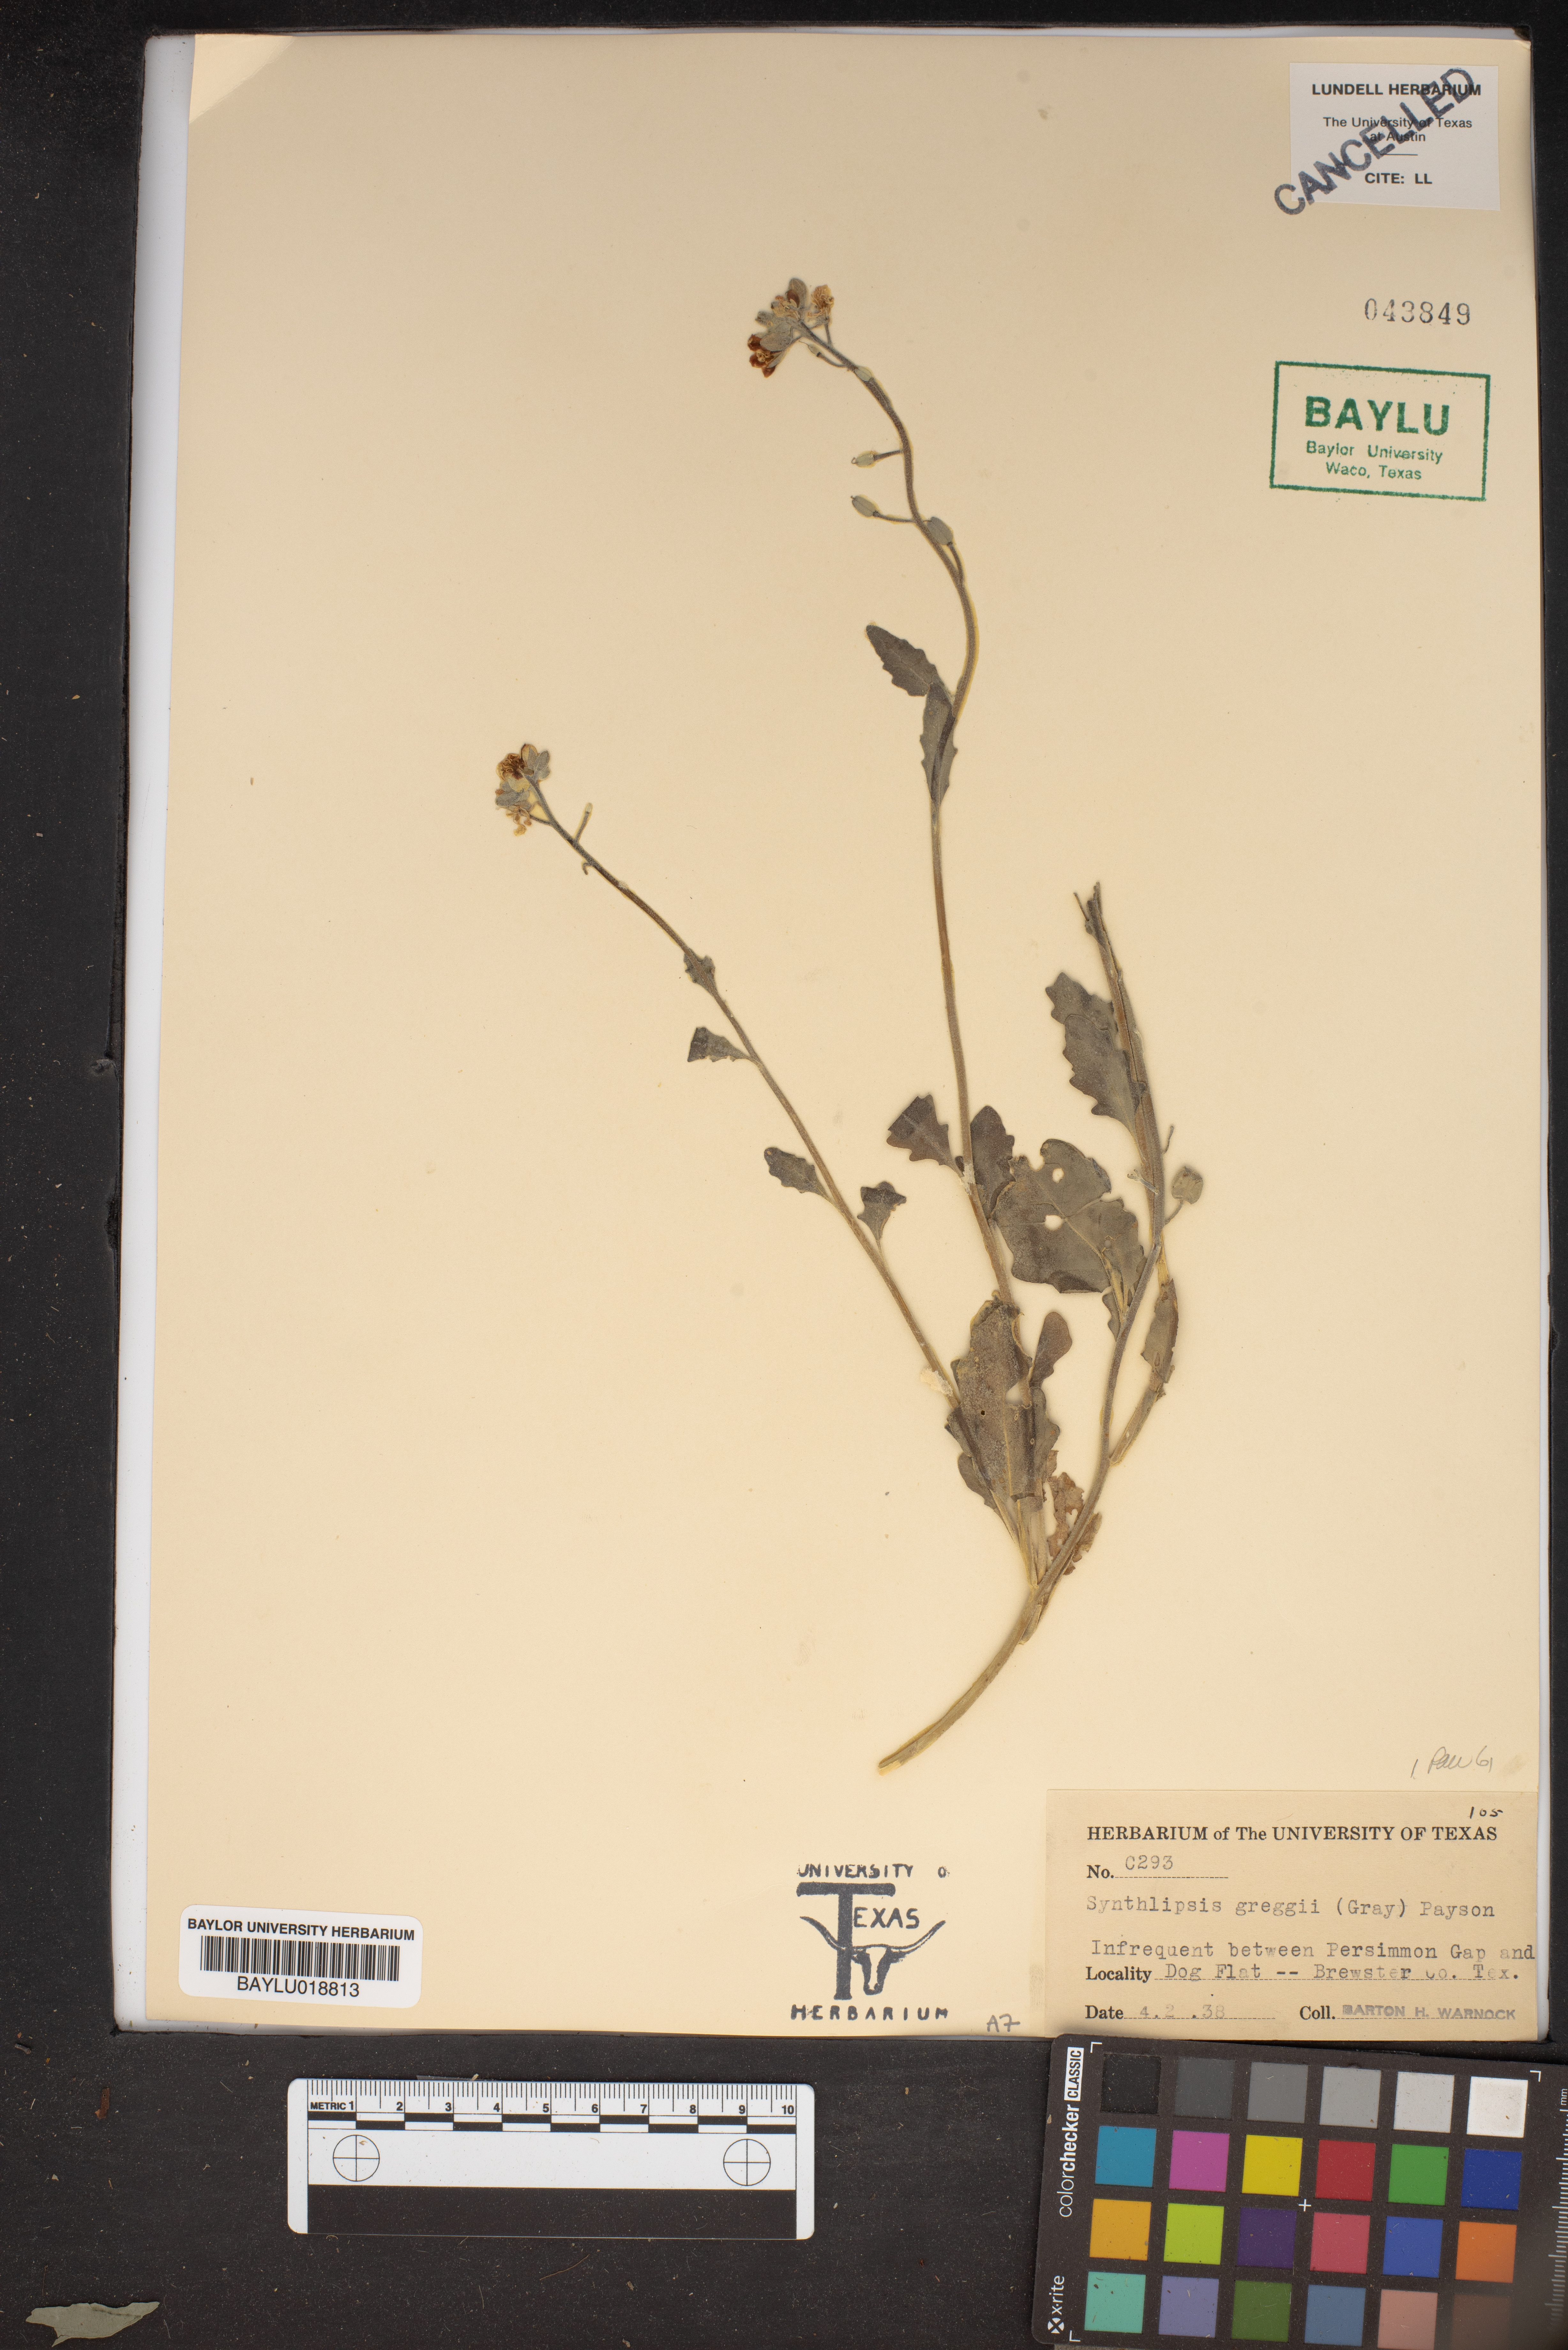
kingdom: Plantae
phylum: Tracheophyta
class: Magnoliopsida
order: Brassicales
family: Brassicaceae
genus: Synthlipsis
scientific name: Synthlipsis greggii
